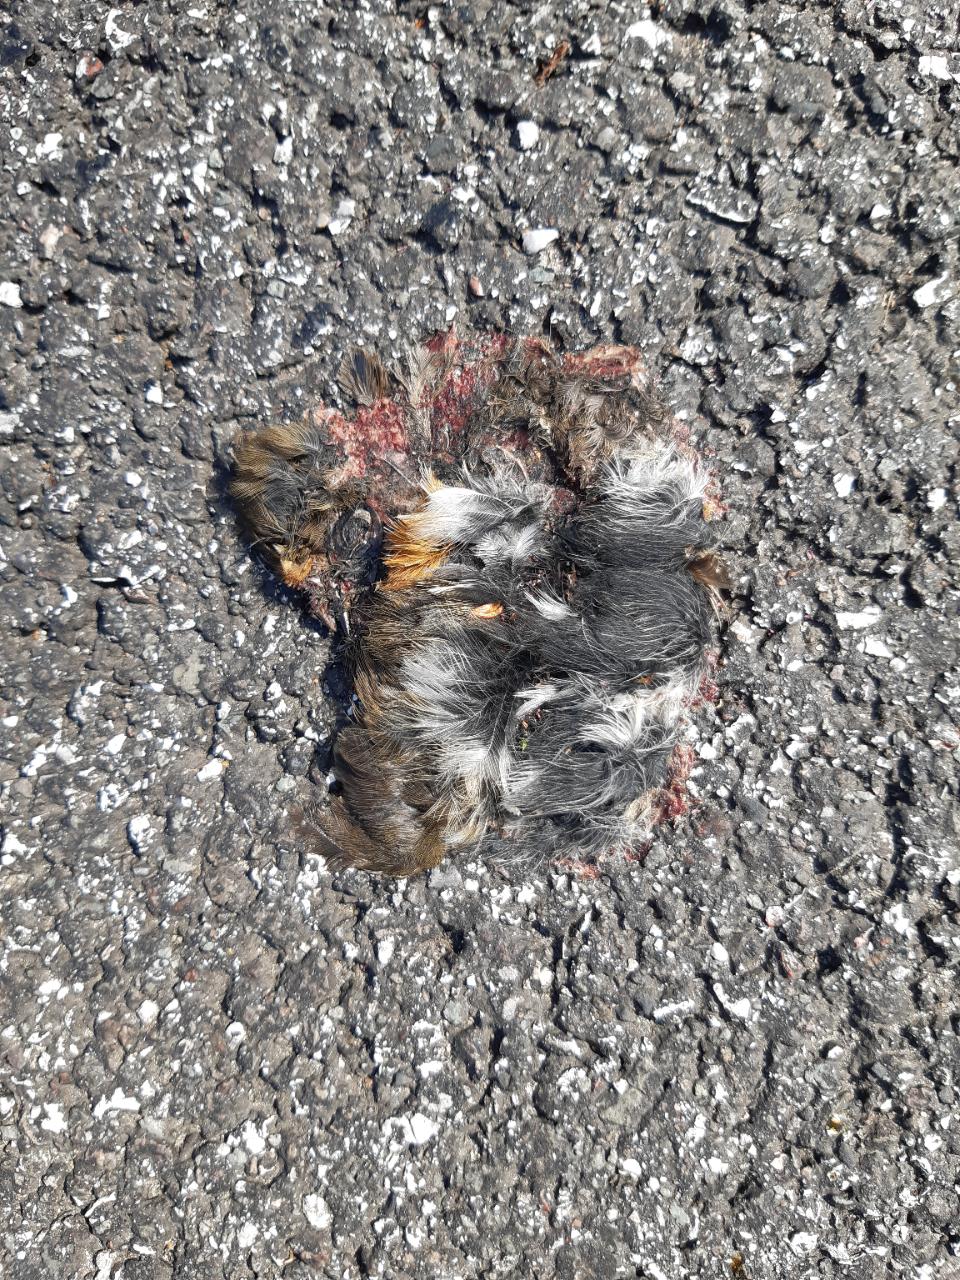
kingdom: Animalia
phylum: Chordata
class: Aves
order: Passeriformes
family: Muscicapidae
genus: Erithacus
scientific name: Erithacus rubecula
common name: European robin
